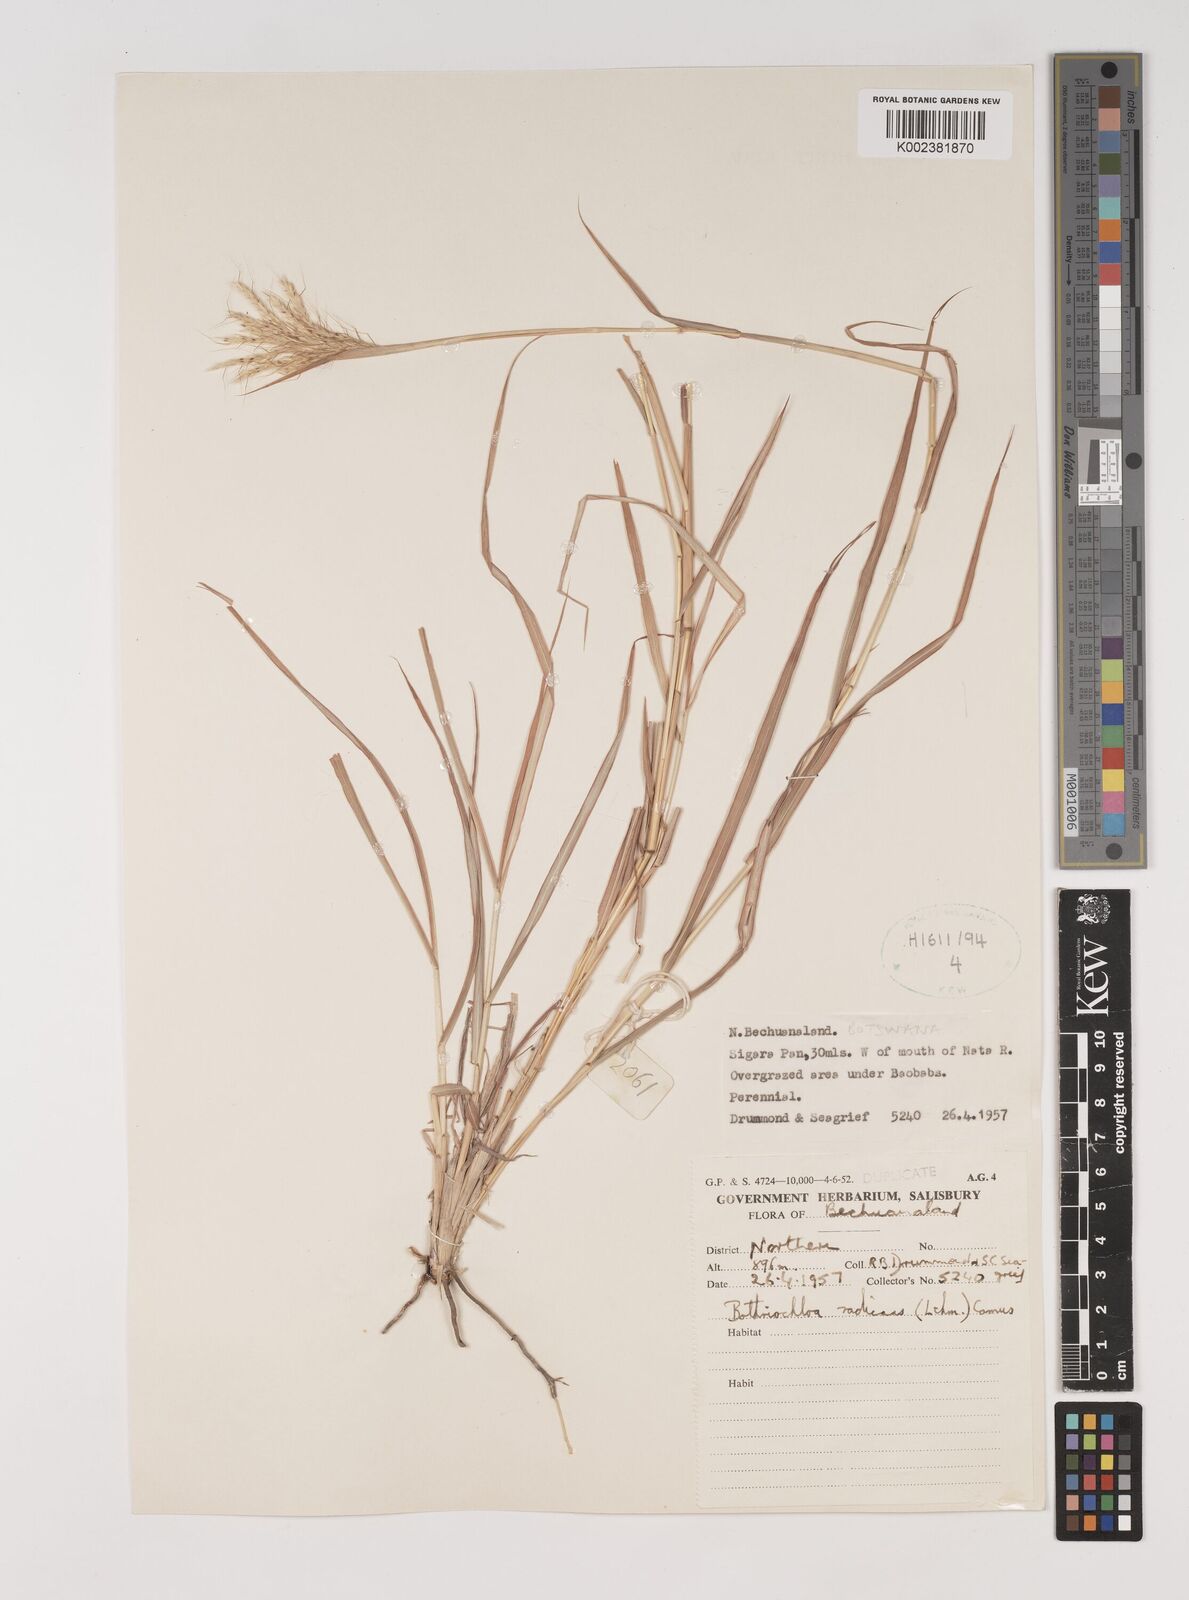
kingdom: Plantae
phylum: Tracheophyta
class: Liliopsida
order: Poales
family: Poaceae
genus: Bothriochloa
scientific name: Bothriochloa radicans
